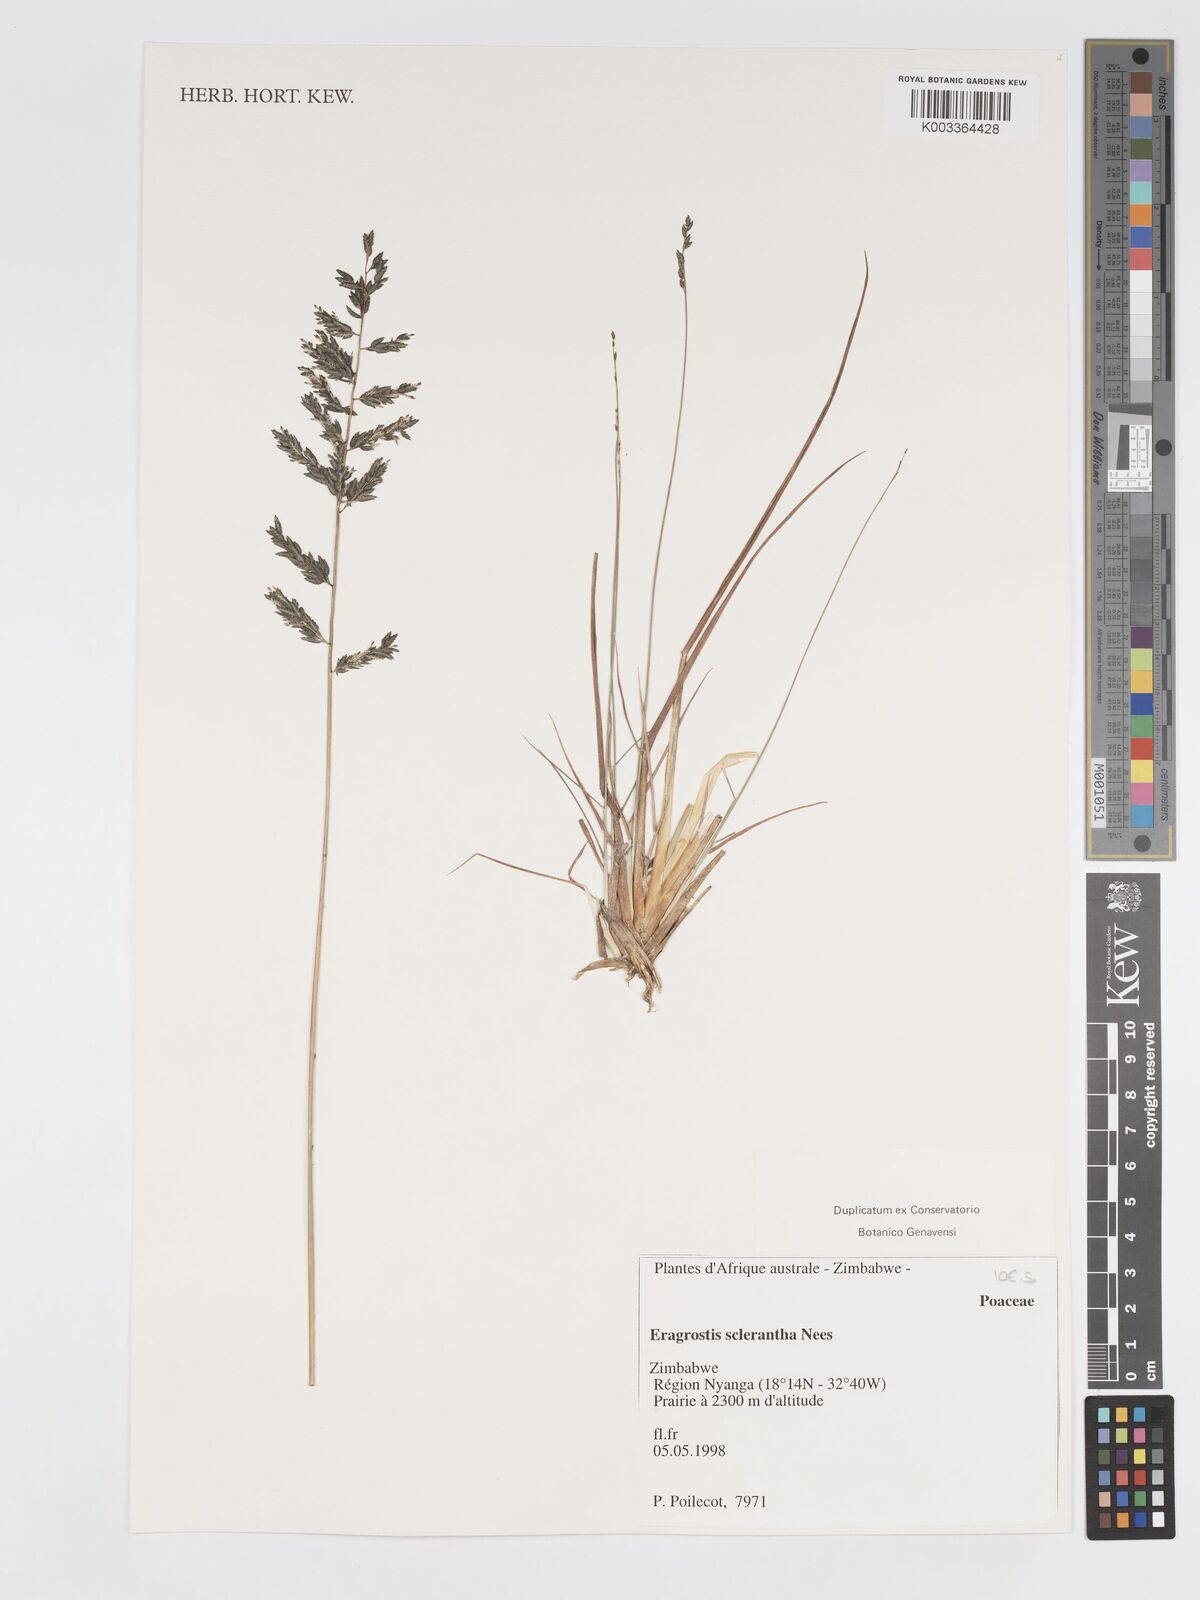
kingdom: Plantae
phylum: Tracheophyta
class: Liliopsida
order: Poales
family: Poaceae
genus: Eragrostis
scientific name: Eragrostis sclerantha
